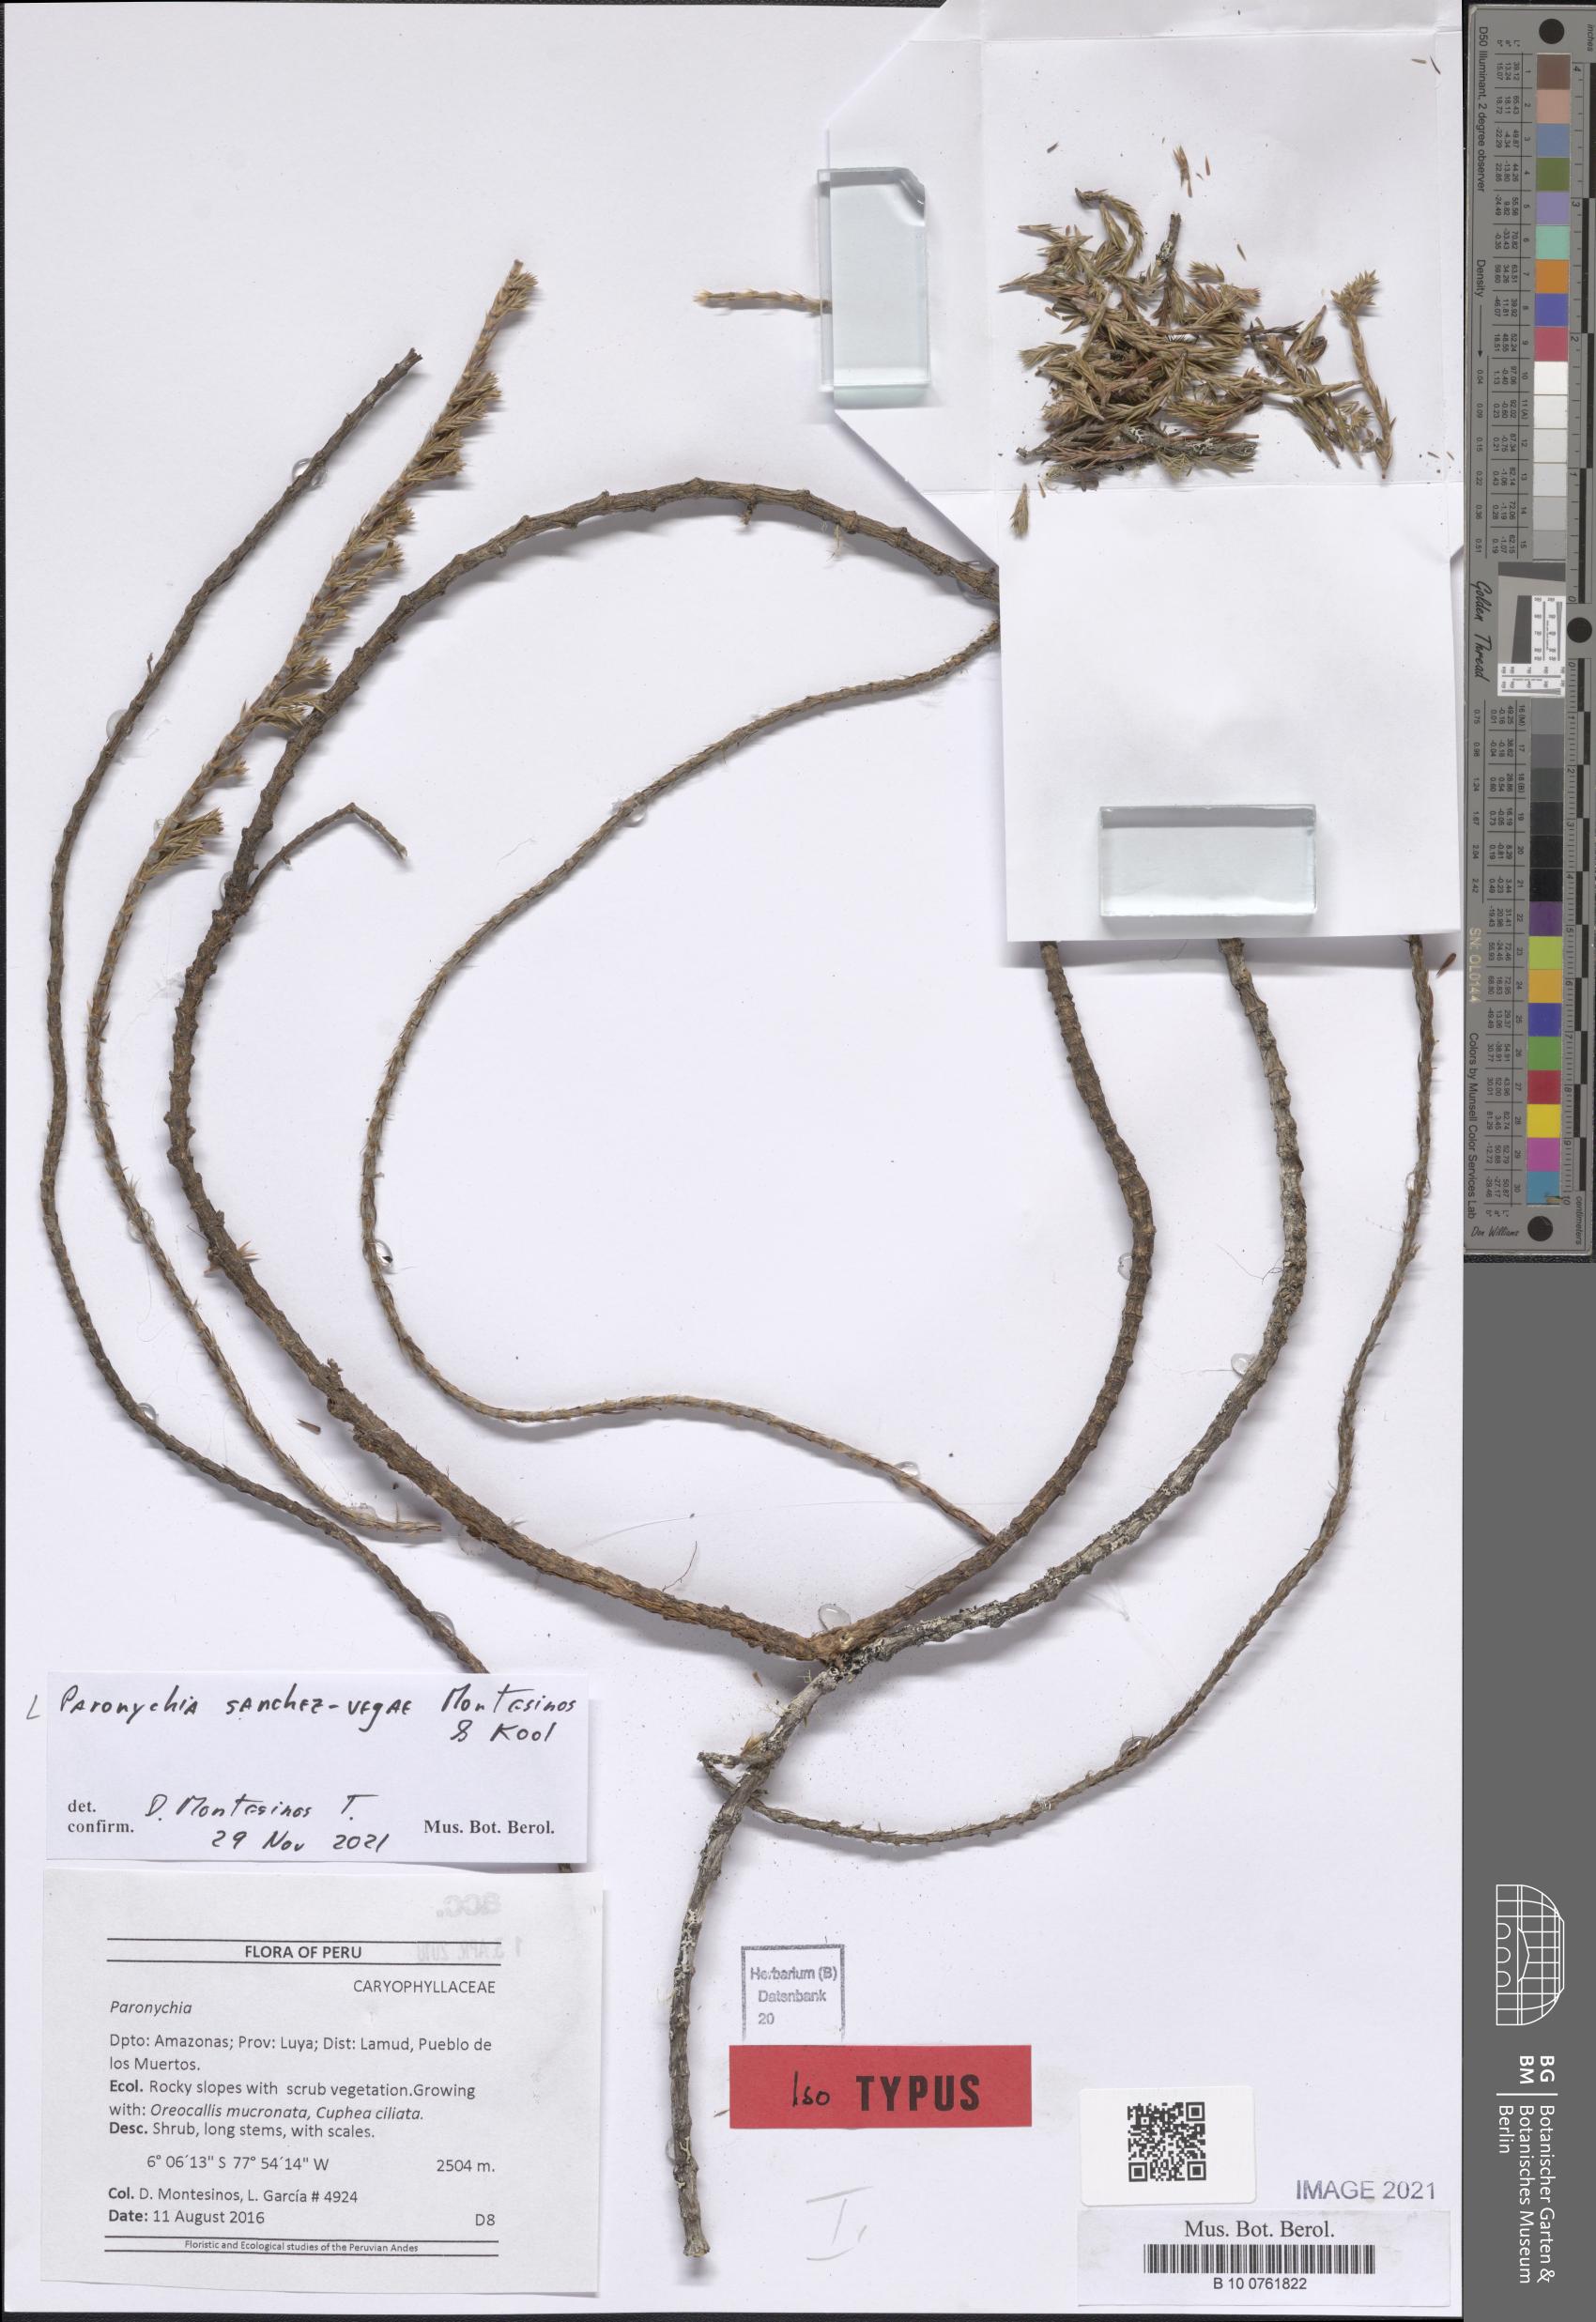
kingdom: Plantae
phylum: Tracheophyta
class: Magnoliopsida
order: Caryophyllales
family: Caryophyllaceae
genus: Paronychia
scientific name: Paronychia sanchez-vegae
